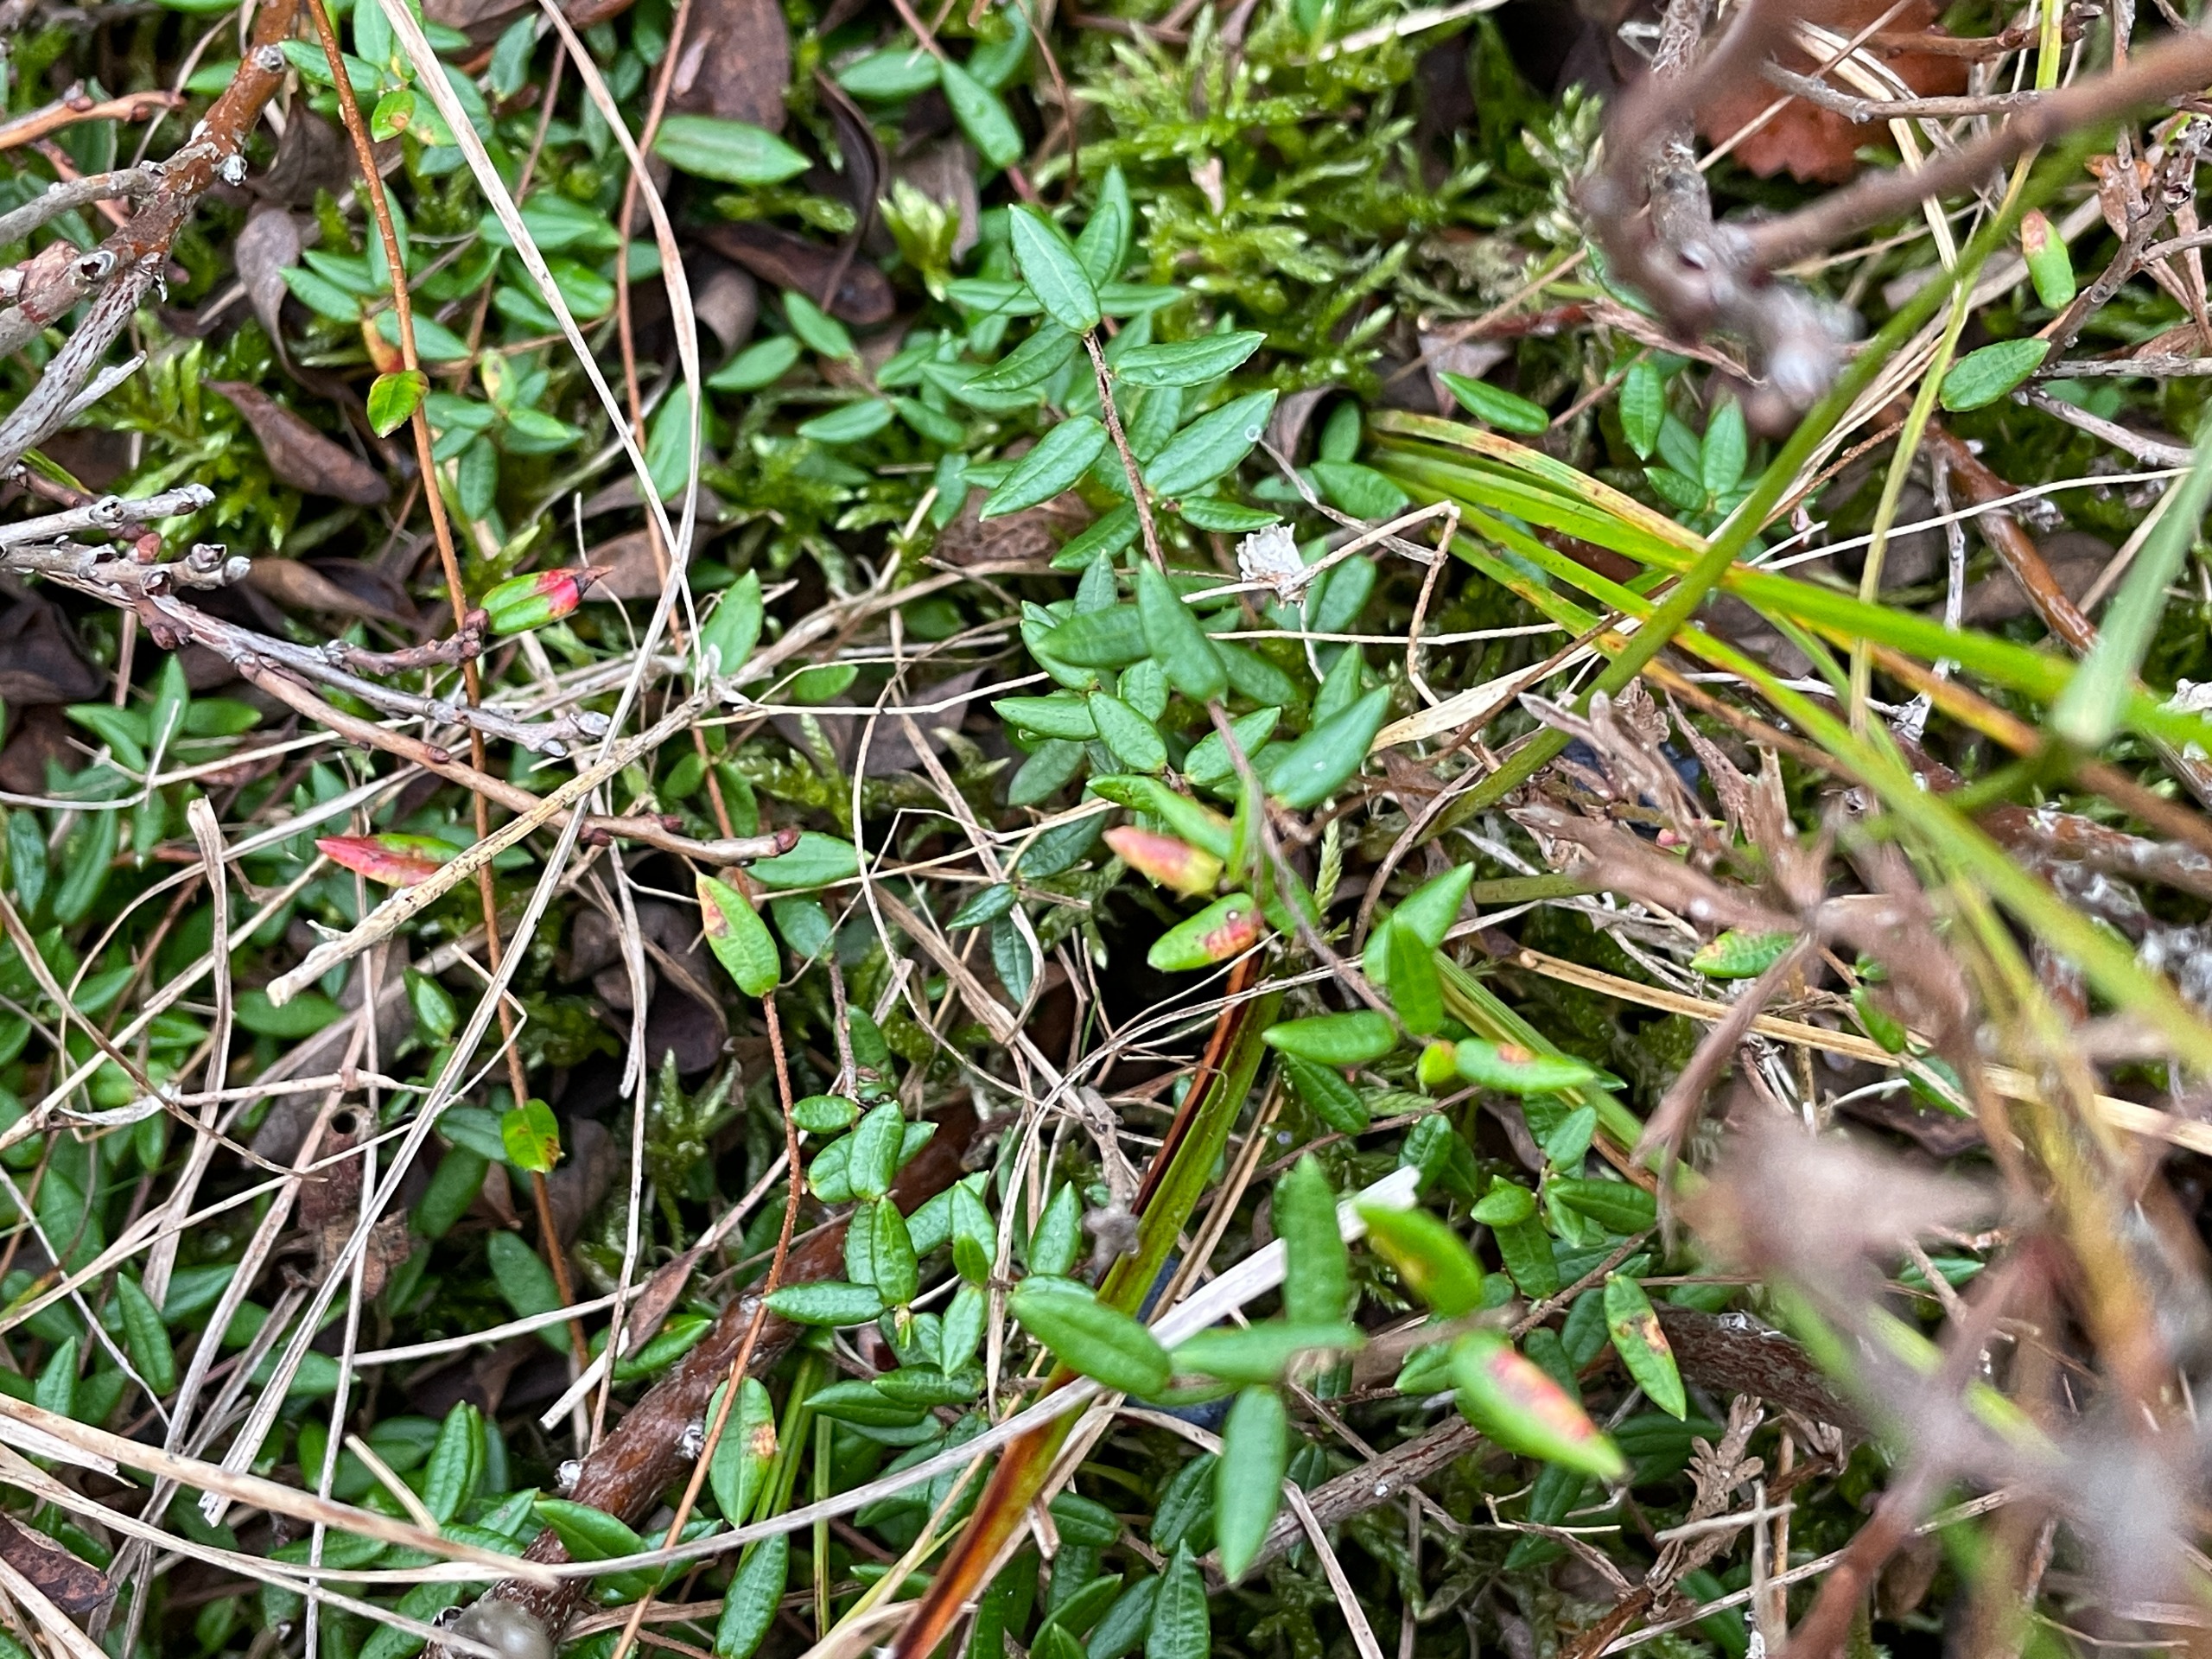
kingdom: Plantae
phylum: Tracheophyta
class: Magnoliopsida
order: Ericales
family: Ericaceae
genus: Vaccinium
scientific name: Vaccinium oxycoccos
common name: Tranebær
